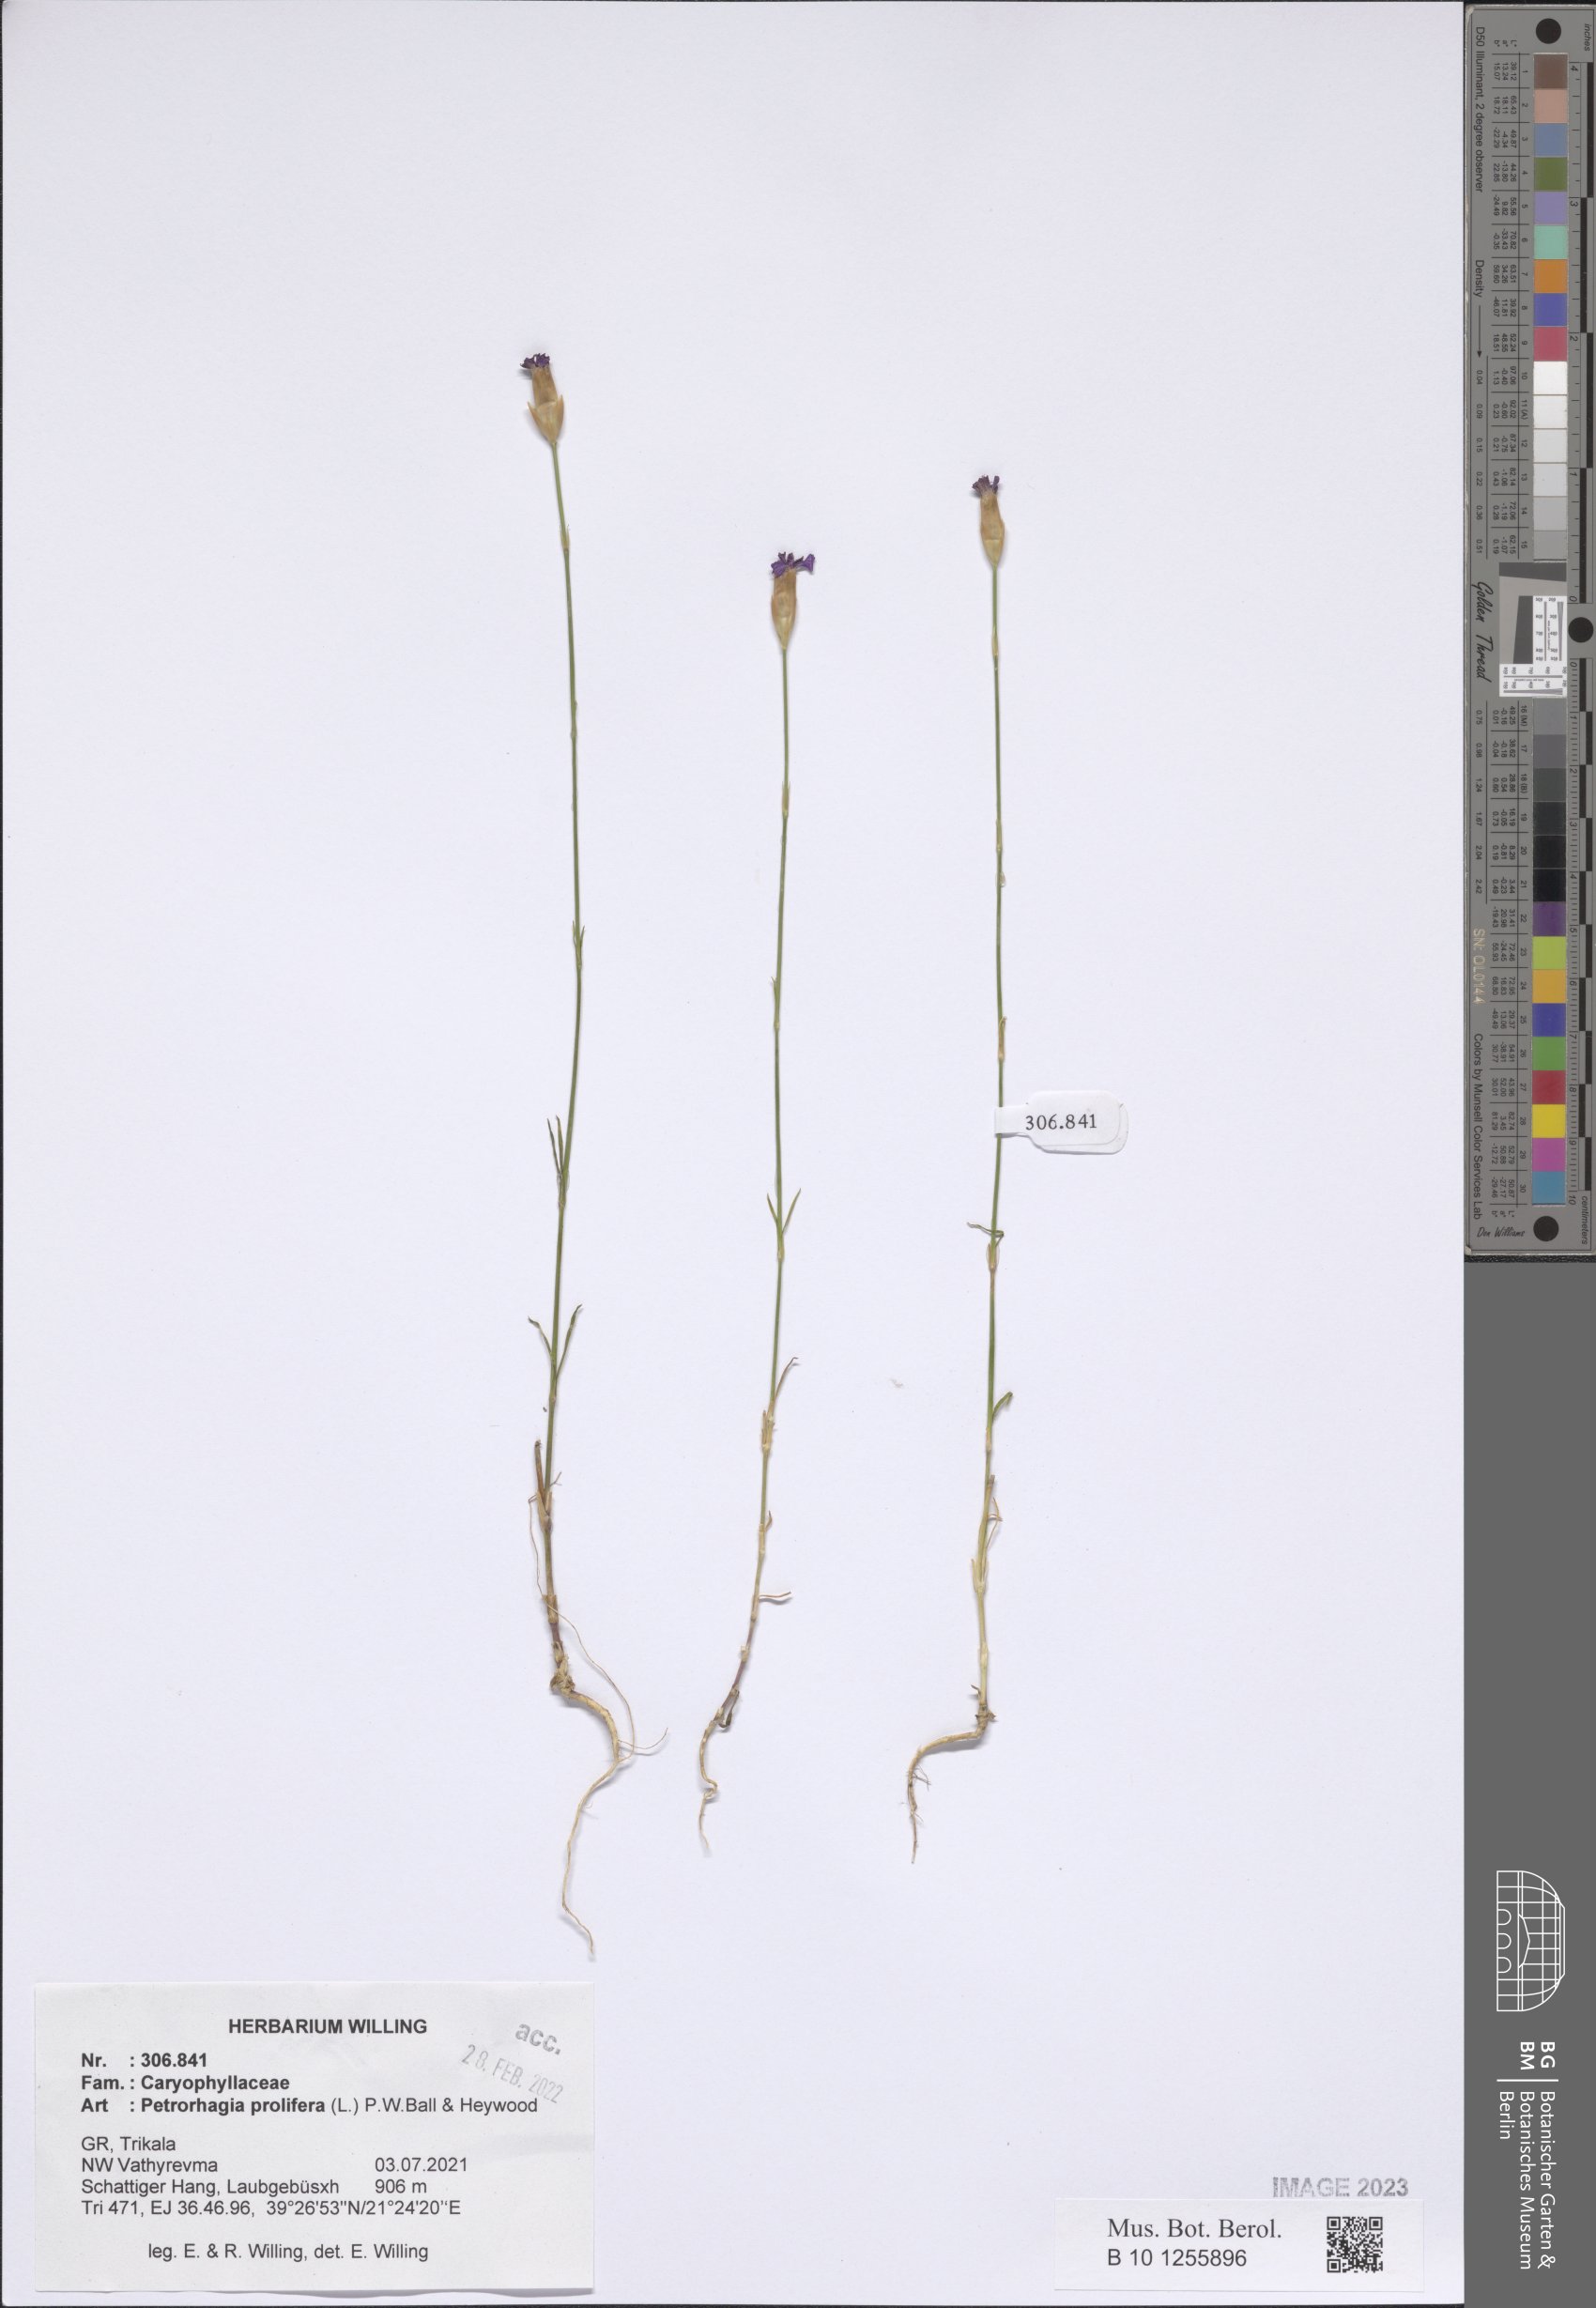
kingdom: Plantae
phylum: Tracheophyta
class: Magnoliopsida
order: Caryophyllales
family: Caryophyllaceae
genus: Petrorhagia
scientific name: Petrorhagia prolifera
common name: Proliferous pink
